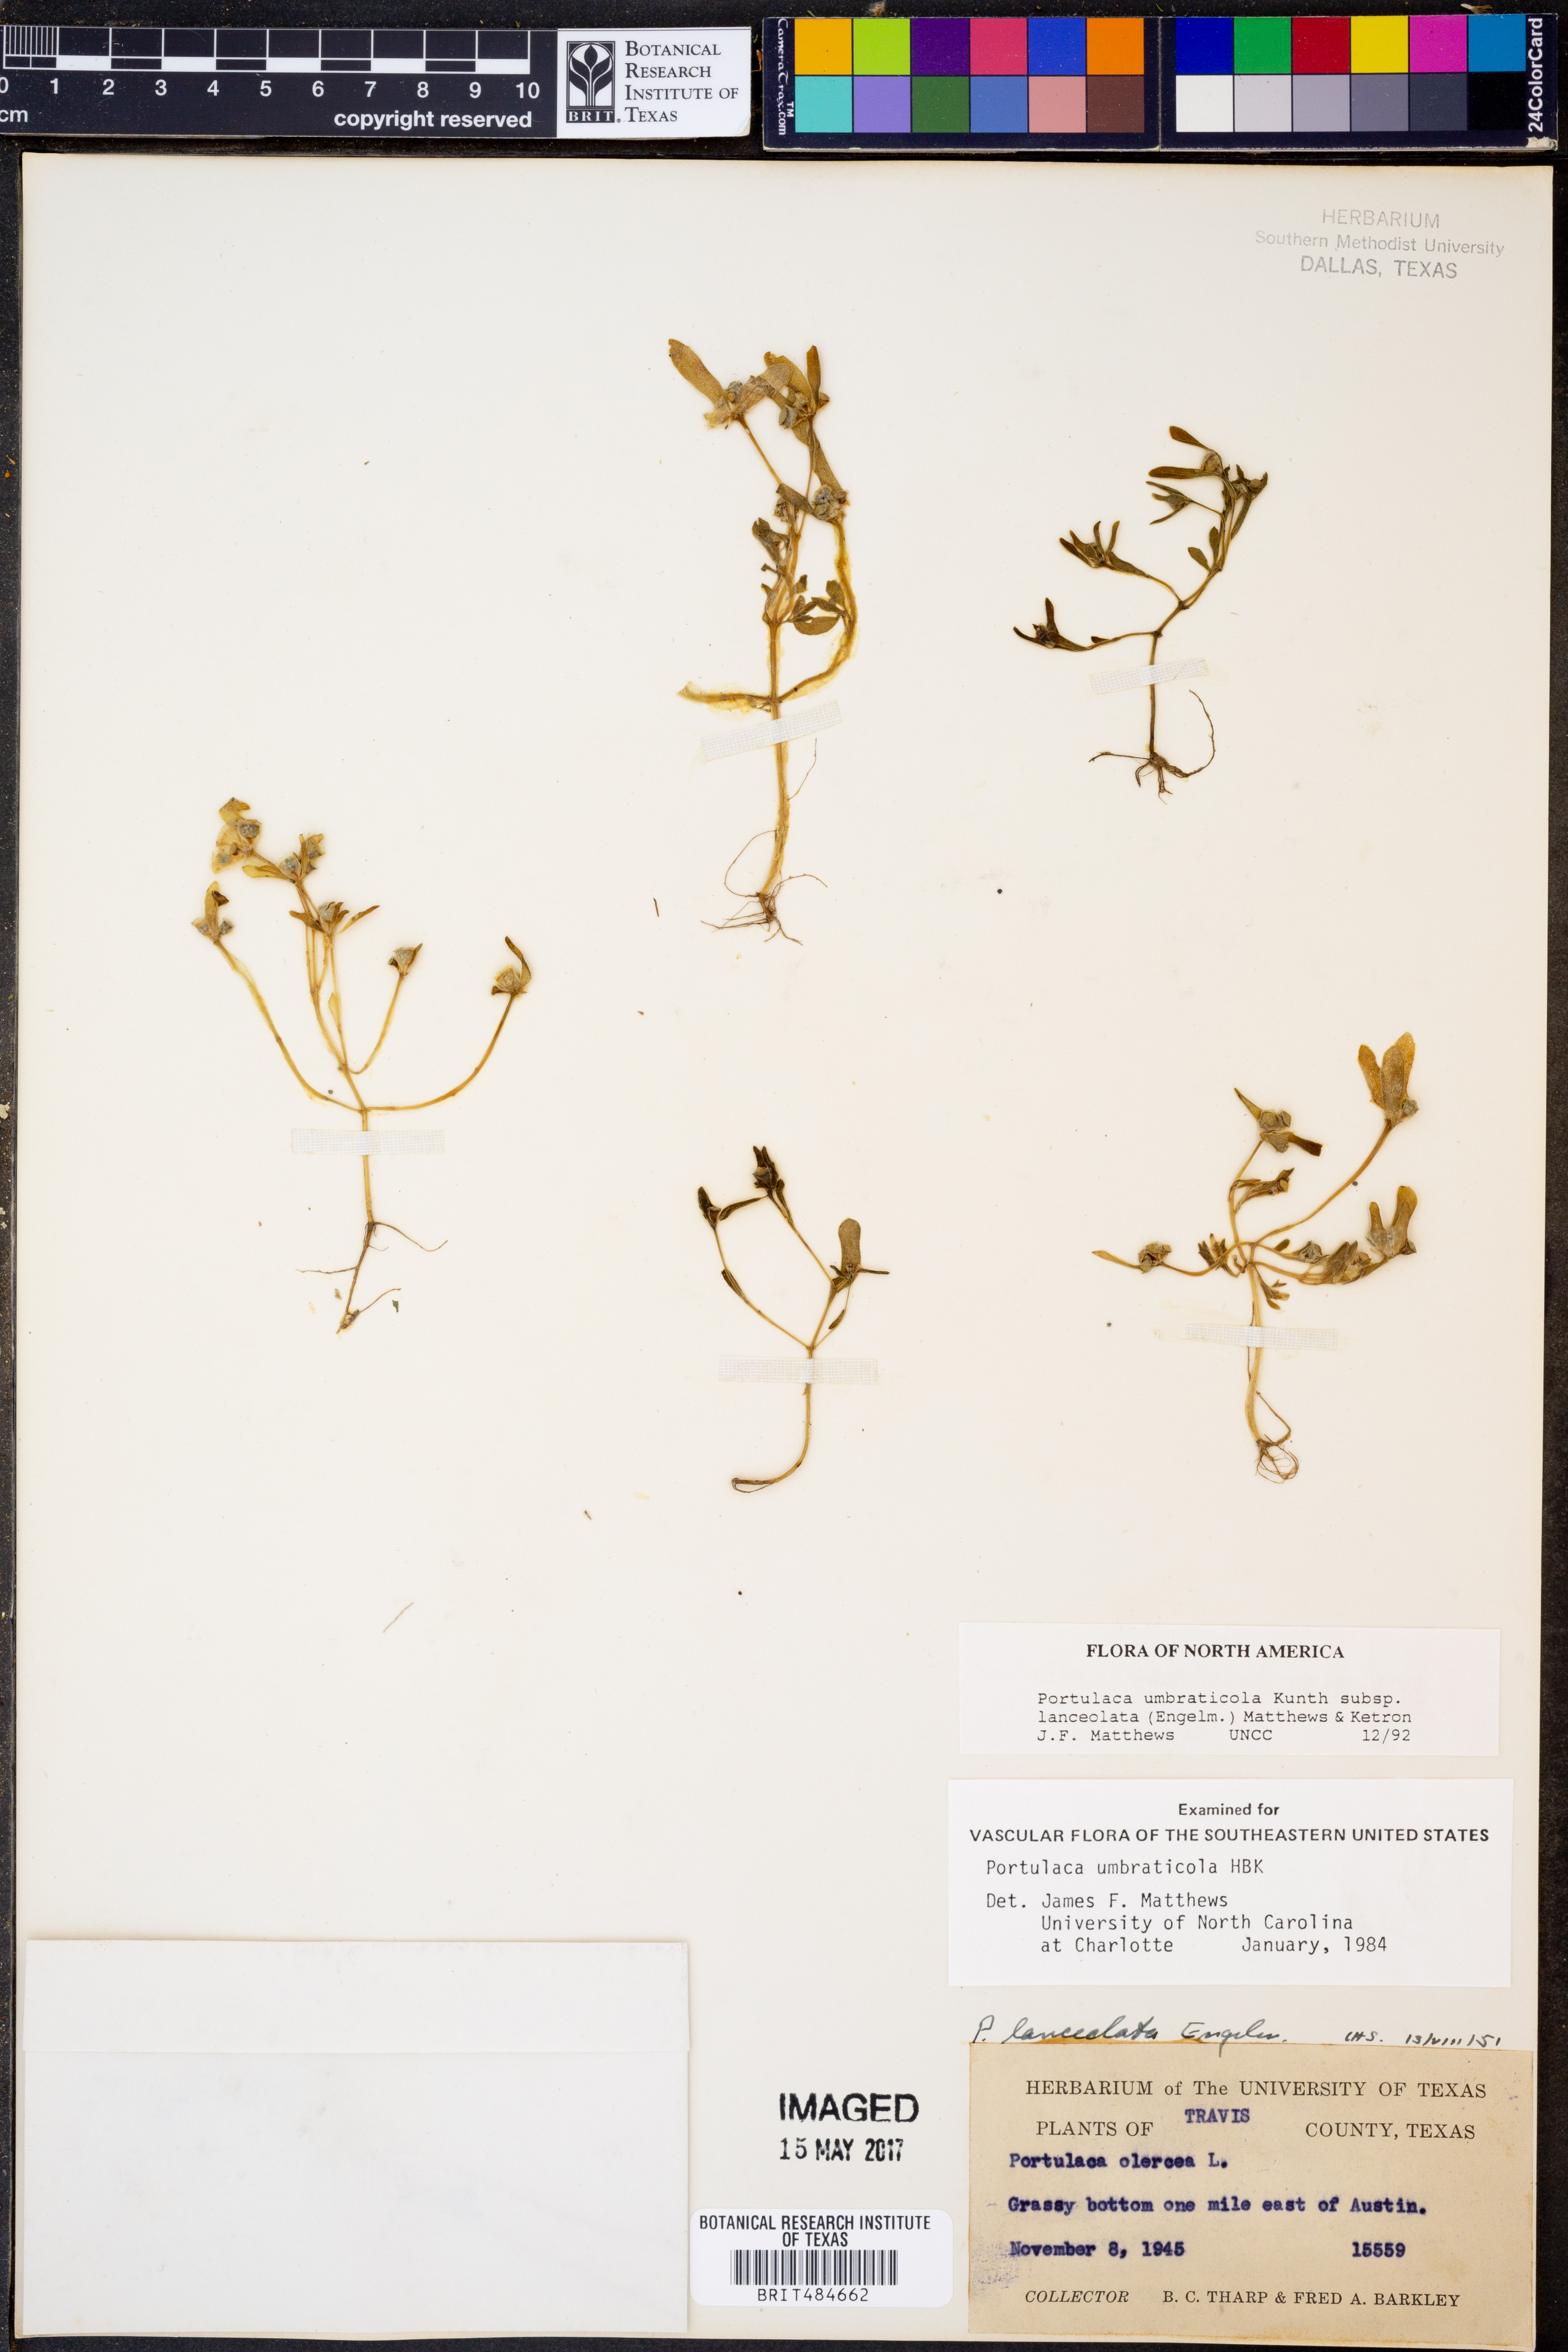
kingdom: Plantae
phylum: Tracheophyta
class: Magnoliopsida
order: Caryophyllales
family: Portulacaceae
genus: Portulaca
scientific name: Portulaca umbraticola
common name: Wingpod purslane
